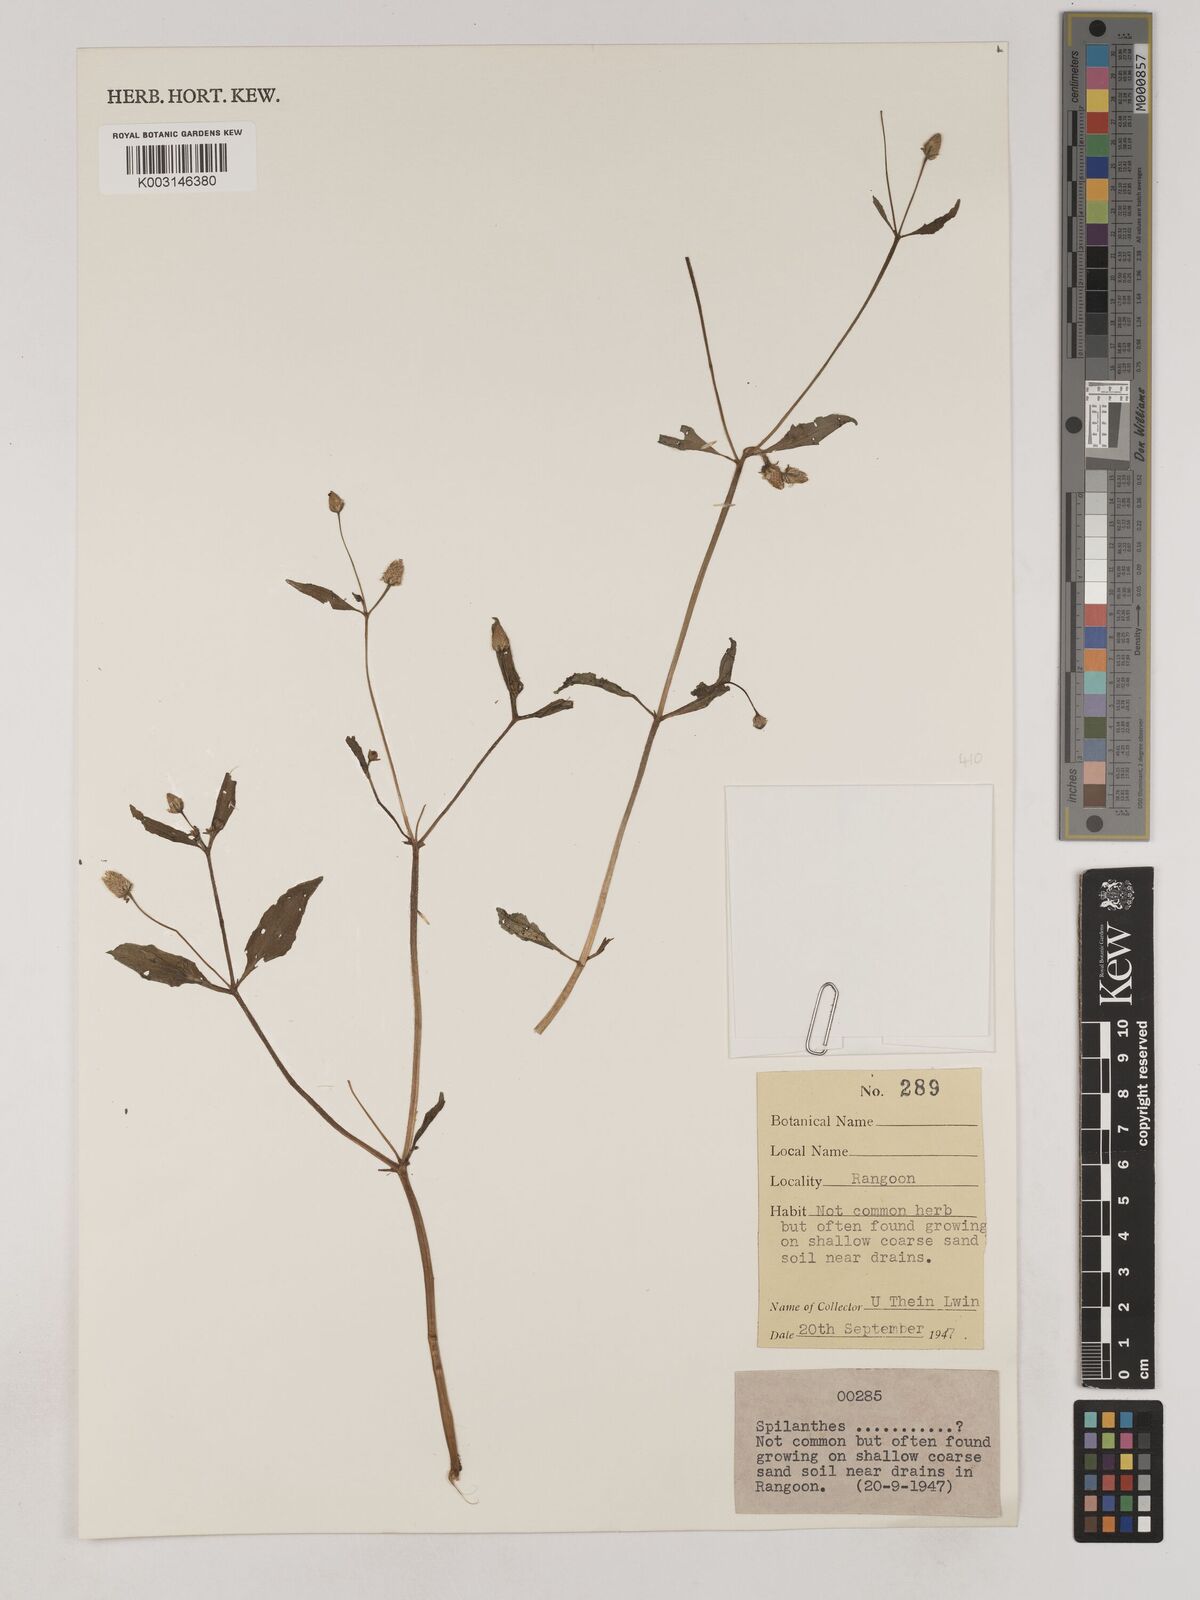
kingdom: Plantae
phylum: Tracheophyta
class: Magnoliopsida
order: Asterales
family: Asteraceae
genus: Acmella
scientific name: Acmella
